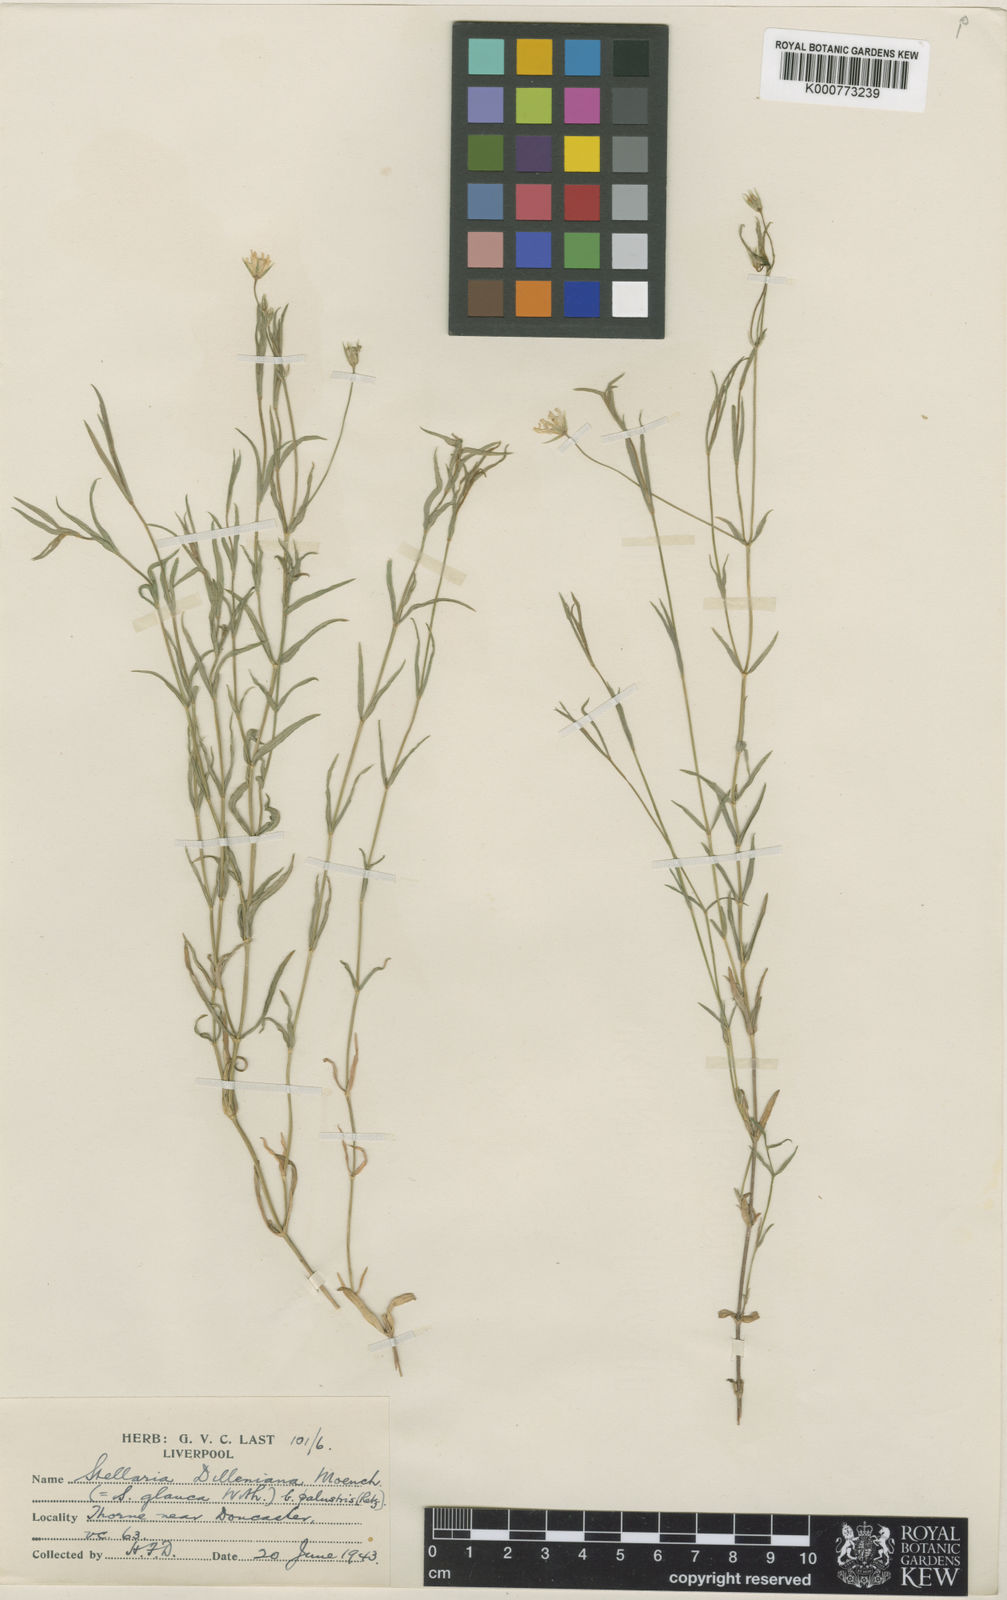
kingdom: Plantae
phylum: Tracheophyta
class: Magnoliopsida
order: Caryophyllales
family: Caryophyllaceae
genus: Stellaria
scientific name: Stellaria
